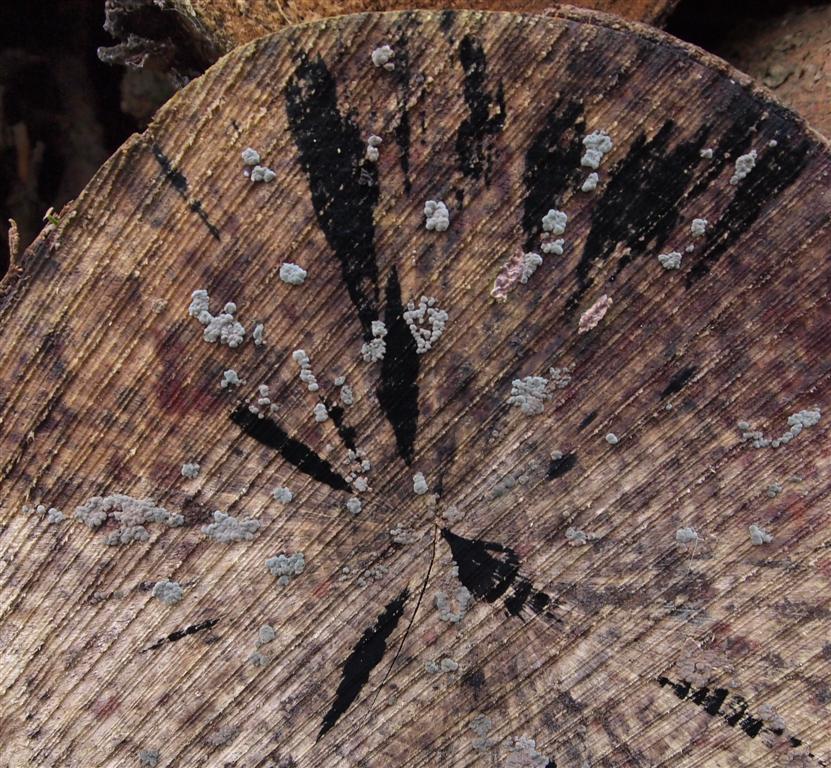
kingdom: Fungi
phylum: Ascomycota
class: Leotiomycetes
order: Helotiales
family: Helotiaceae
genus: Bispora
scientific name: Bispora pallescens
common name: måtte-snitskive
